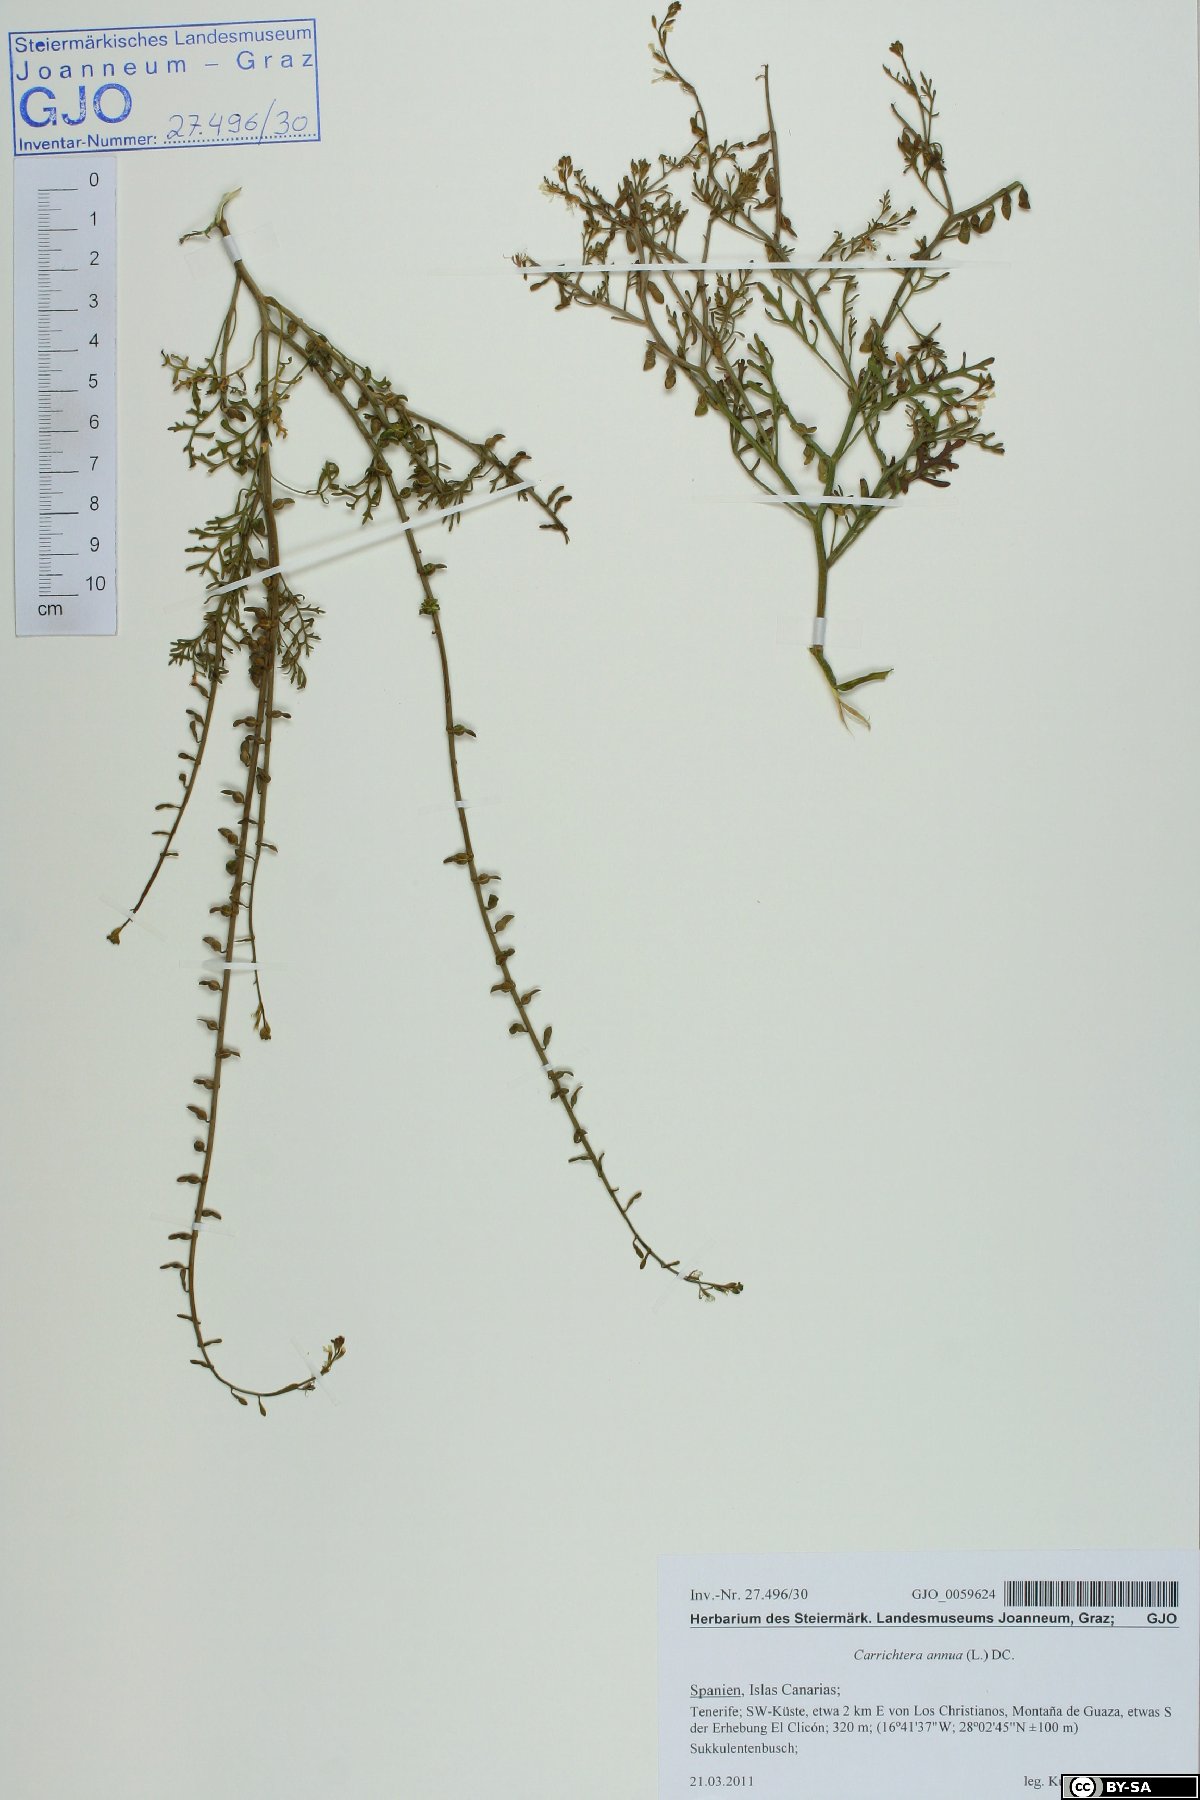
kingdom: Plantae
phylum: Tracheophyta
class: Magnoliopsida
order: Brassicales
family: Brassicaceae
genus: Carrichtera
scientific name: Carrichtera annua
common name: Cress rocket
